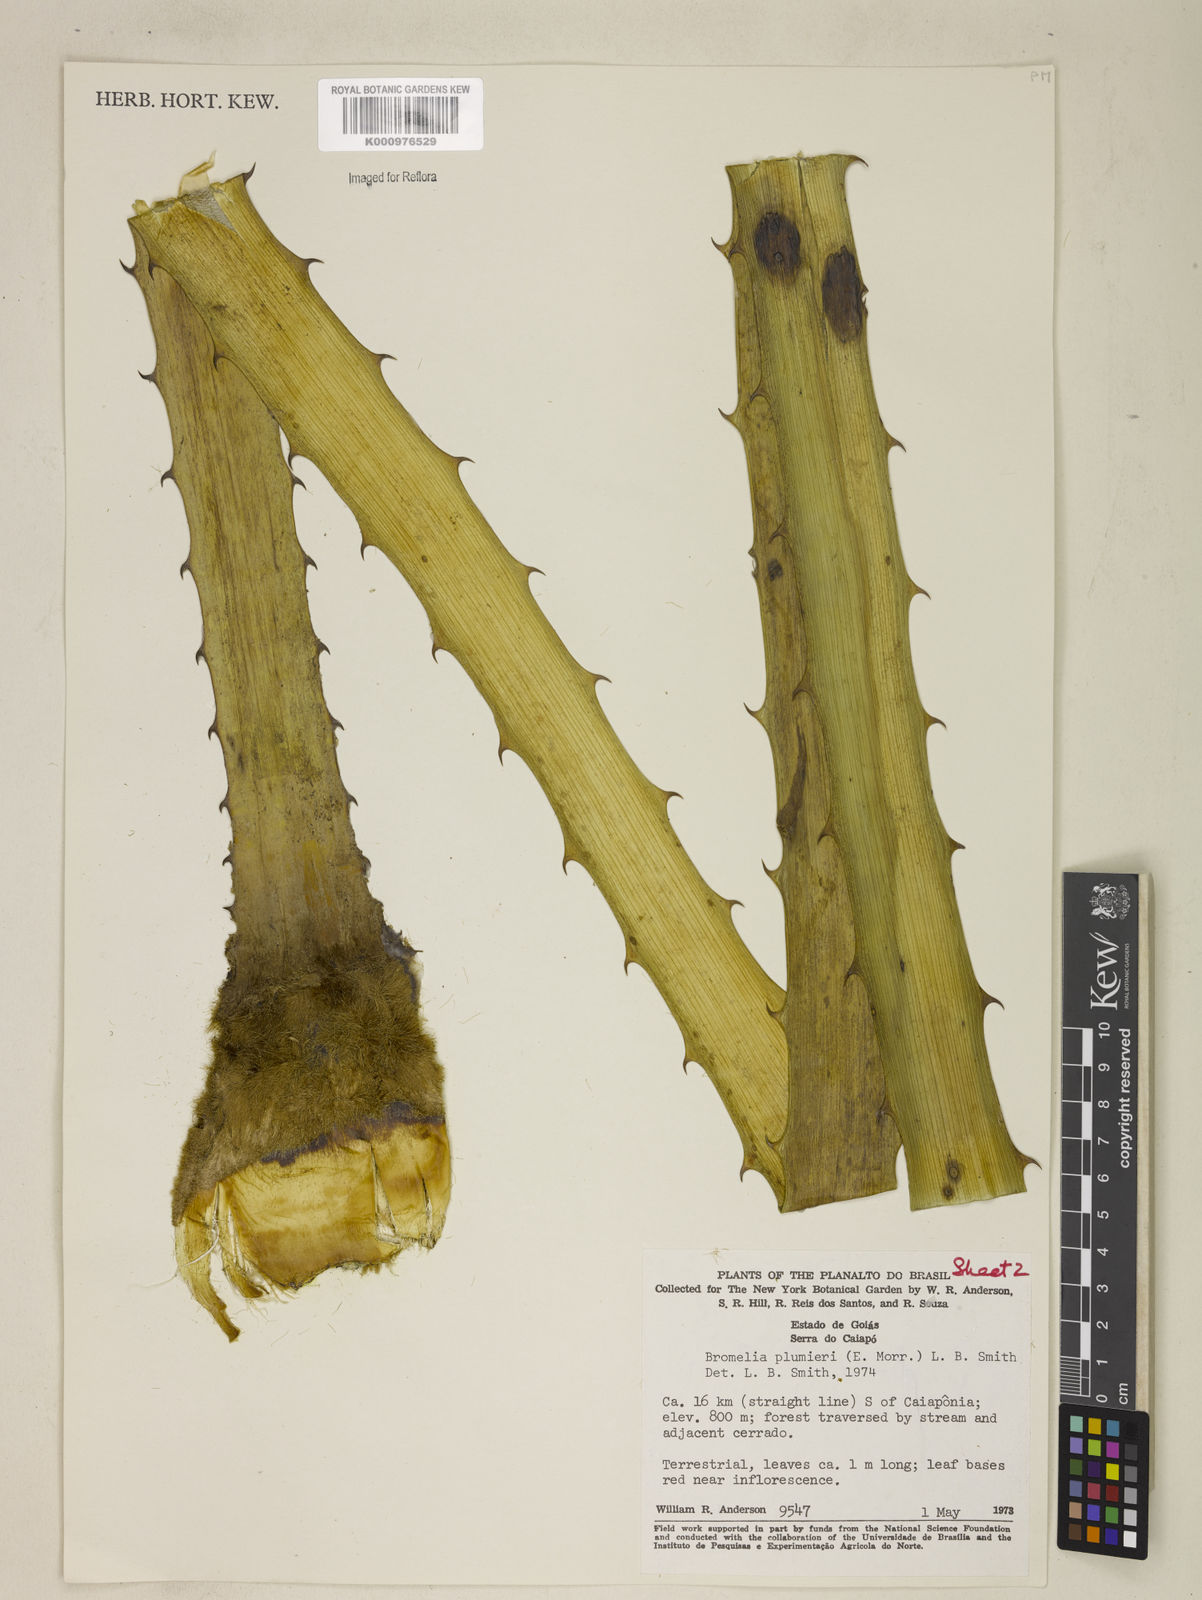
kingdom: Plantae
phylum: Tracheophyta
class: Liliopsida
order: Poales
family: Bromeliaceae
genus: Bromelia
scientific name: Bromelia karatas
